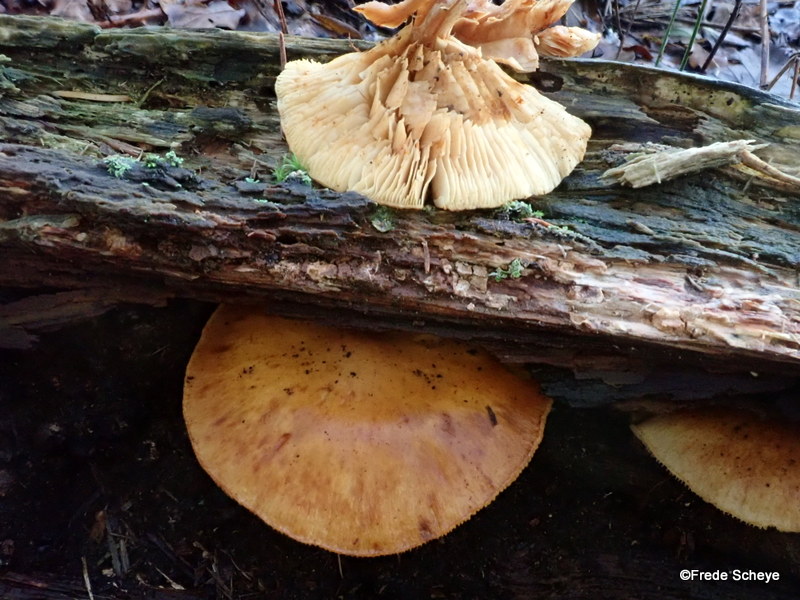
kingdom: Fungi
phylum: Basidiomycota
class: Agaricomycetes
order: Agaricales
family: Hymenogastraceae
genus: Gymnopilus
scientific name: Gymnopilus penetrans
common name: plettet flammehat
